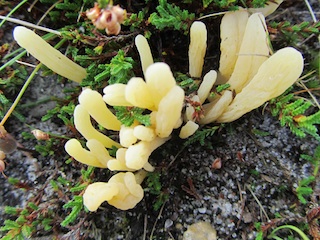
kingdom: Fungi
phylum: Basidiomycota
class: Agaricomycetes
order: Agaricales
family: Clavariaceae
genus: Clavaria
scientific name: Clavaria argillacea
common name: lerfarvet køllesvamp
